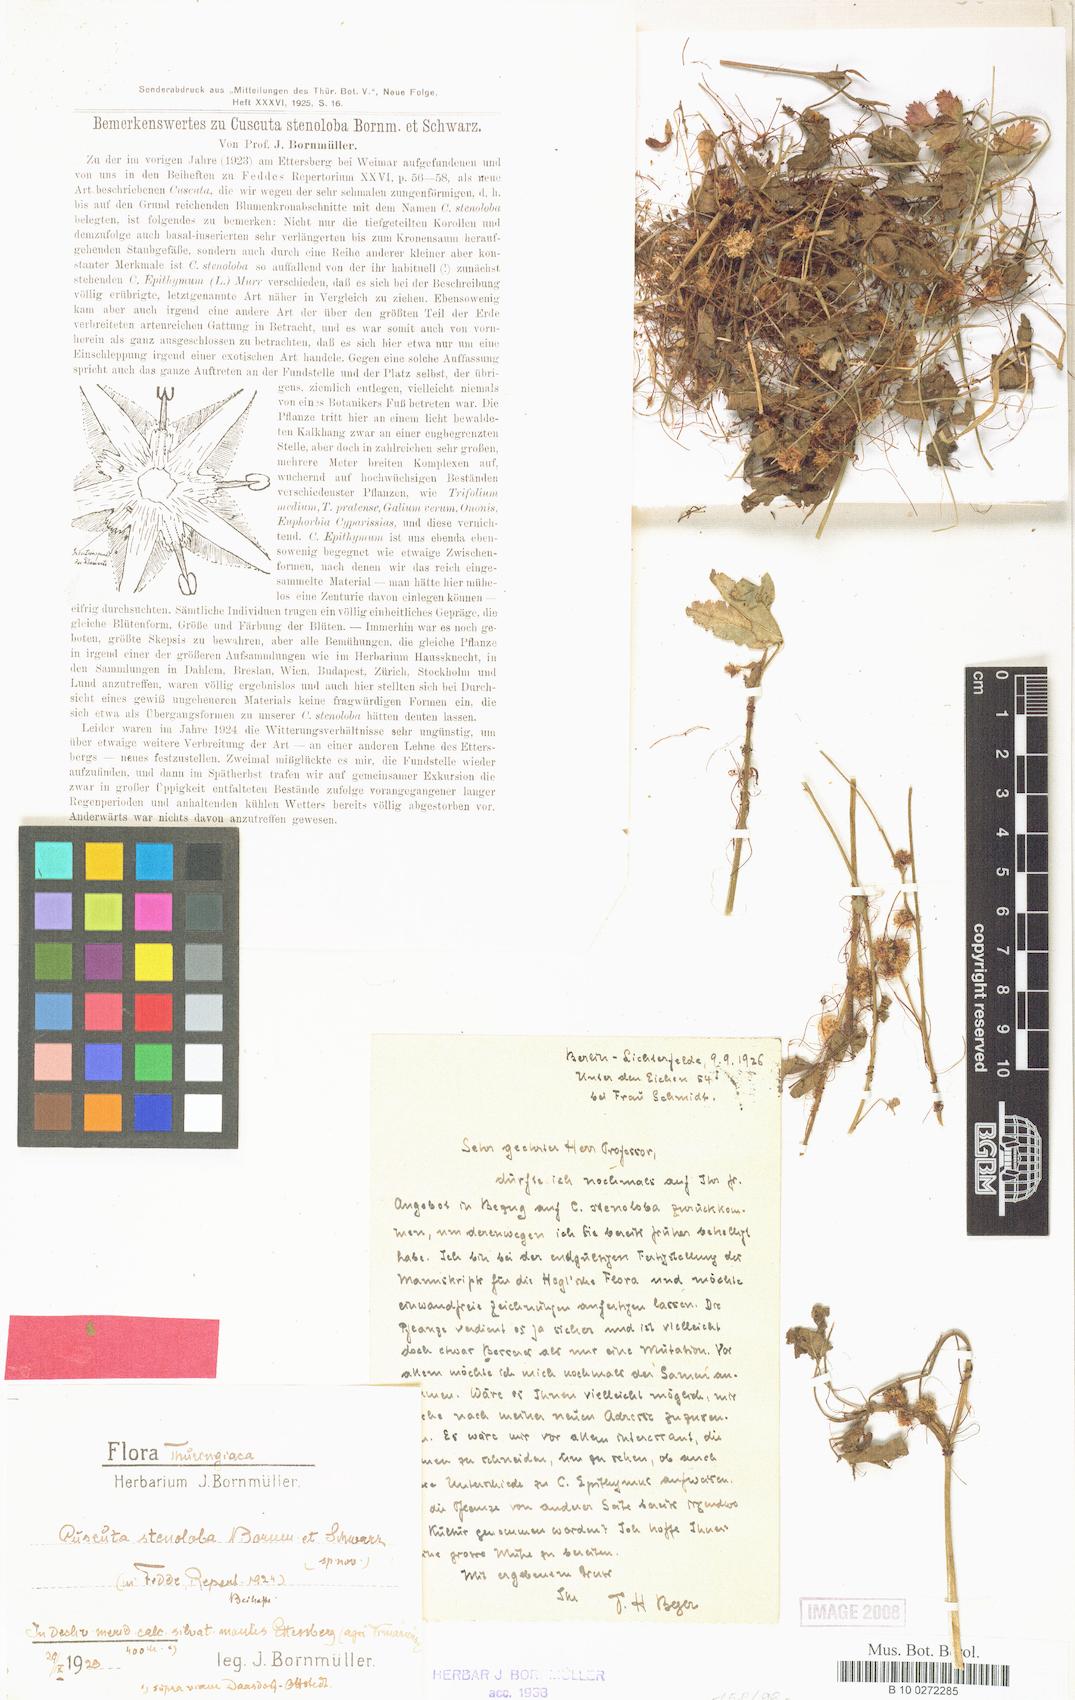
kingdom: Plantae
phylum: Tracheophyta
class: Magnoliopsida
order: Solanales
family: Convolvulaceae
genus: Cuscuta
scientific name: Cuscuta epithymum
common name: Clover dodder
